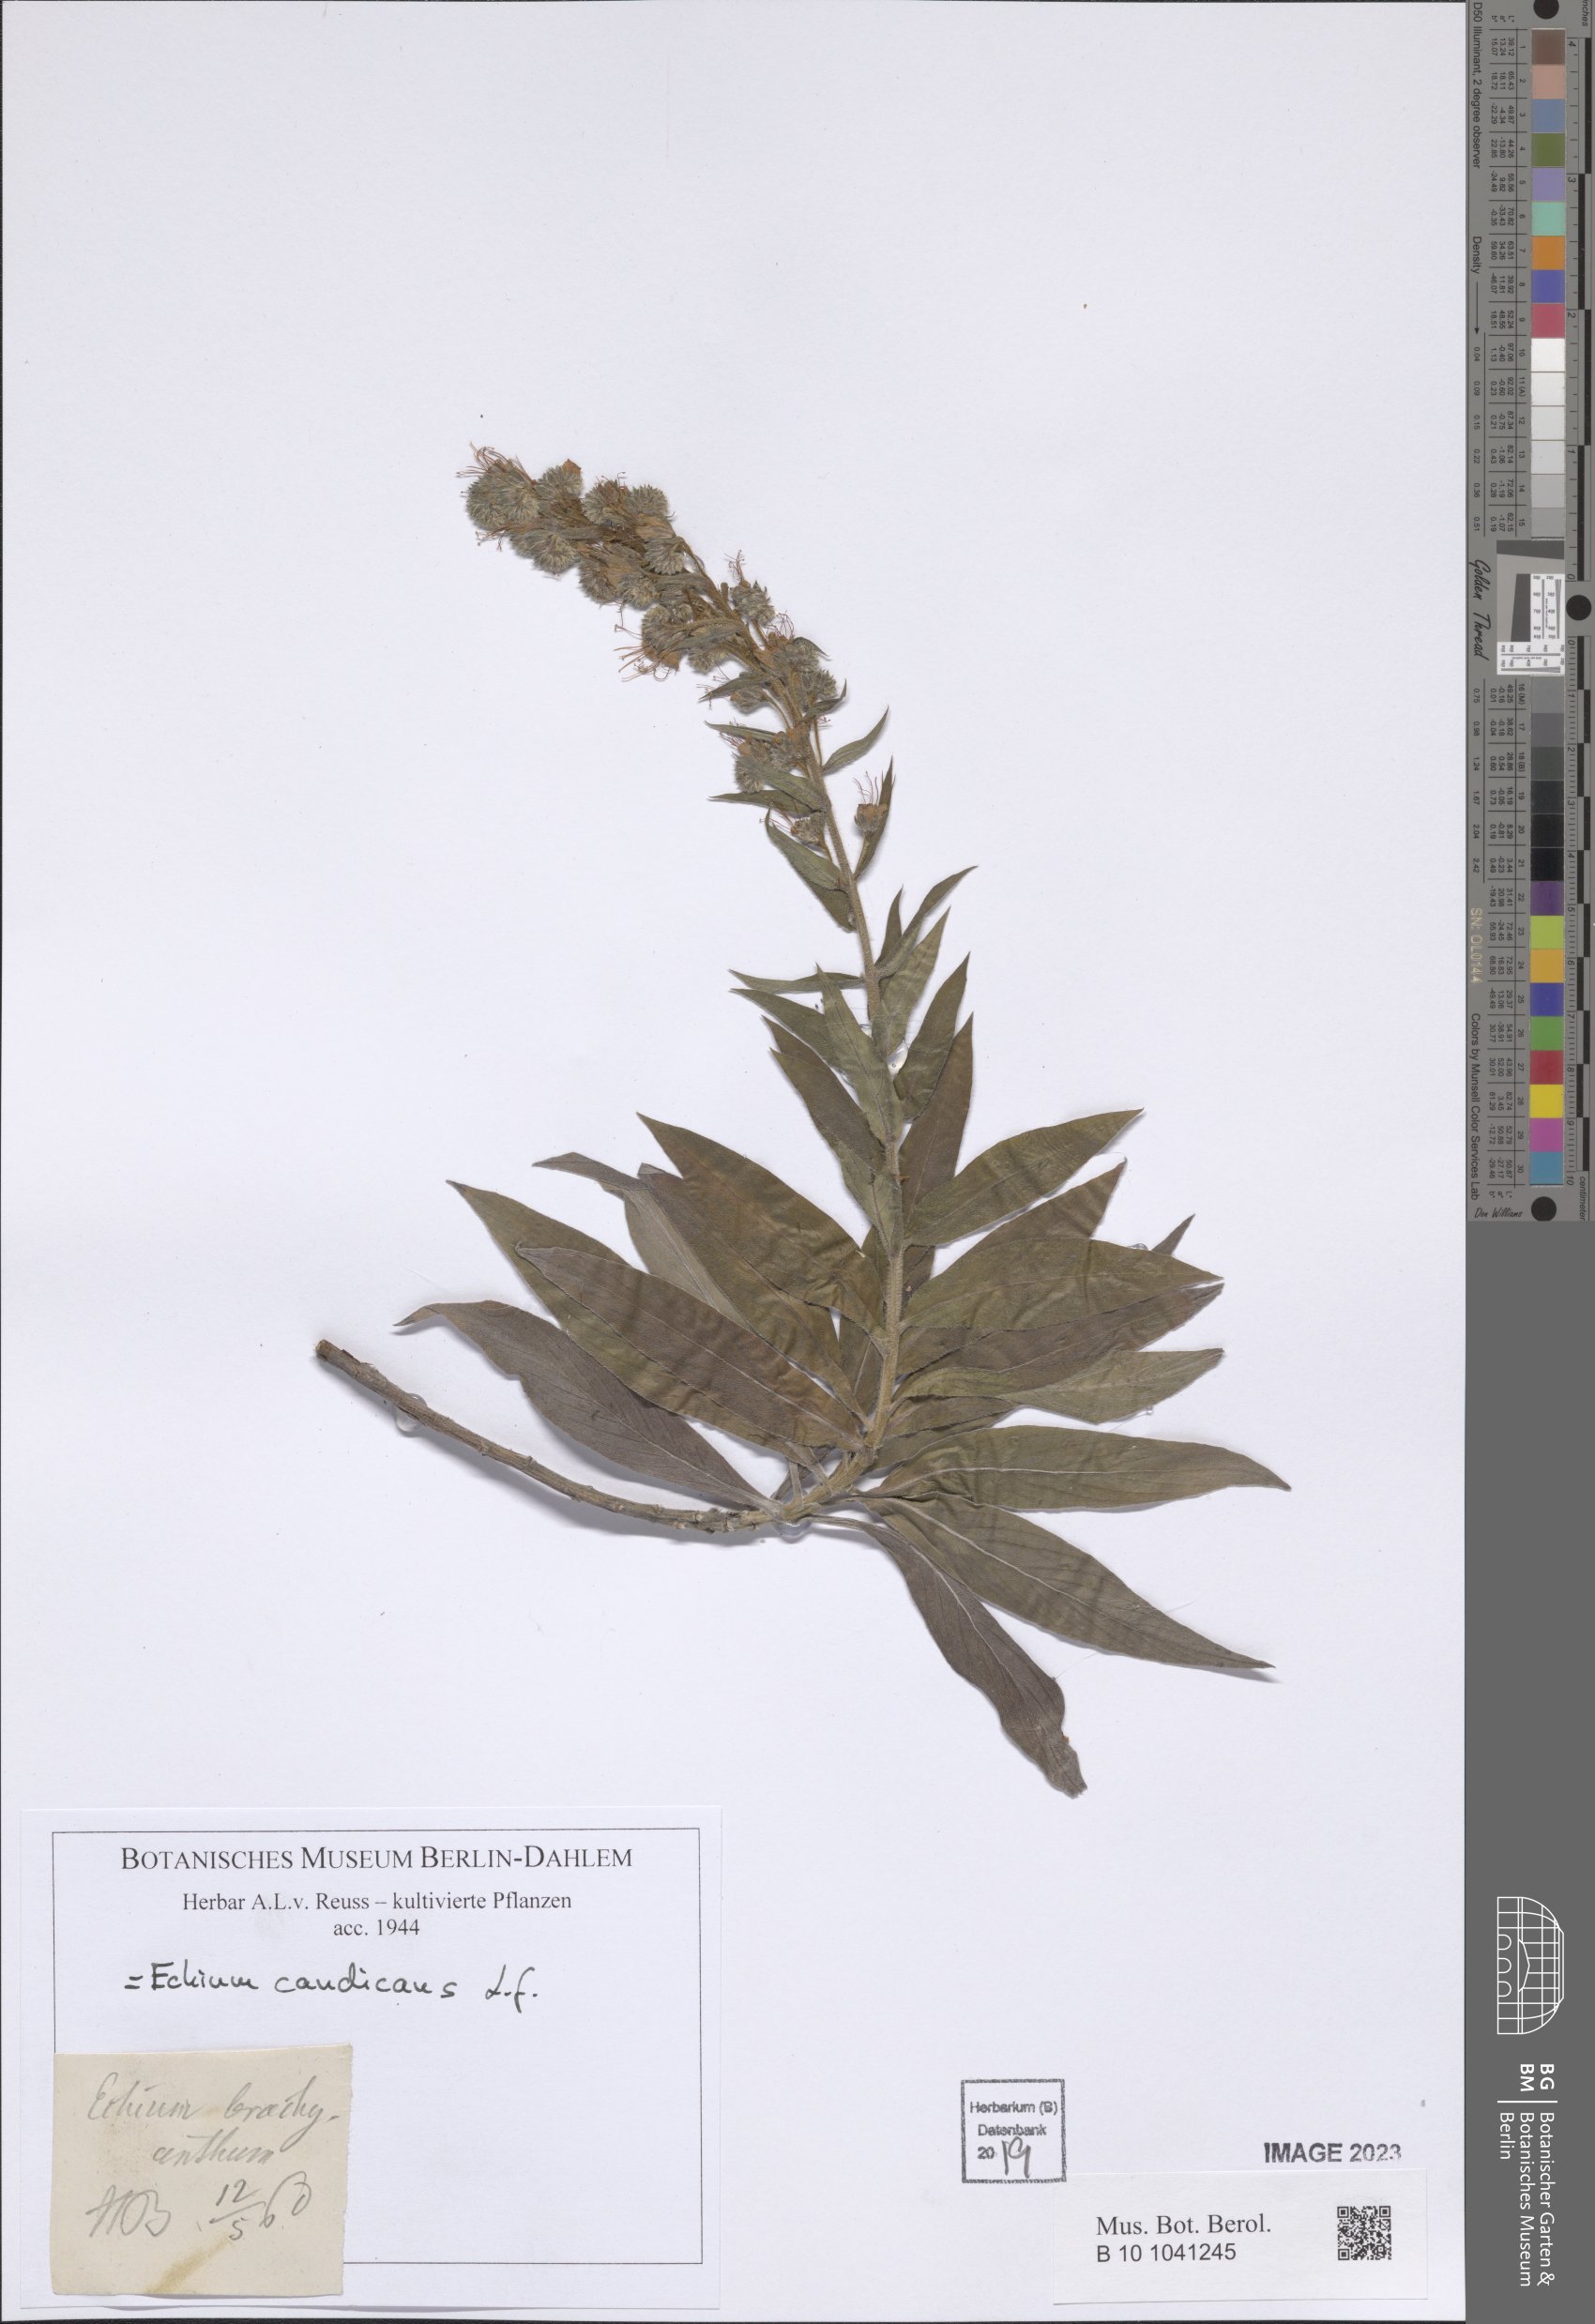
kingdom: Plantae
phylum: Tracheophyta
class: Magnoliopsida
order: Boraginales
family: Boraginaceae
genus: Echium
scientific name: Echium candicans
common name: Pride of madeira
